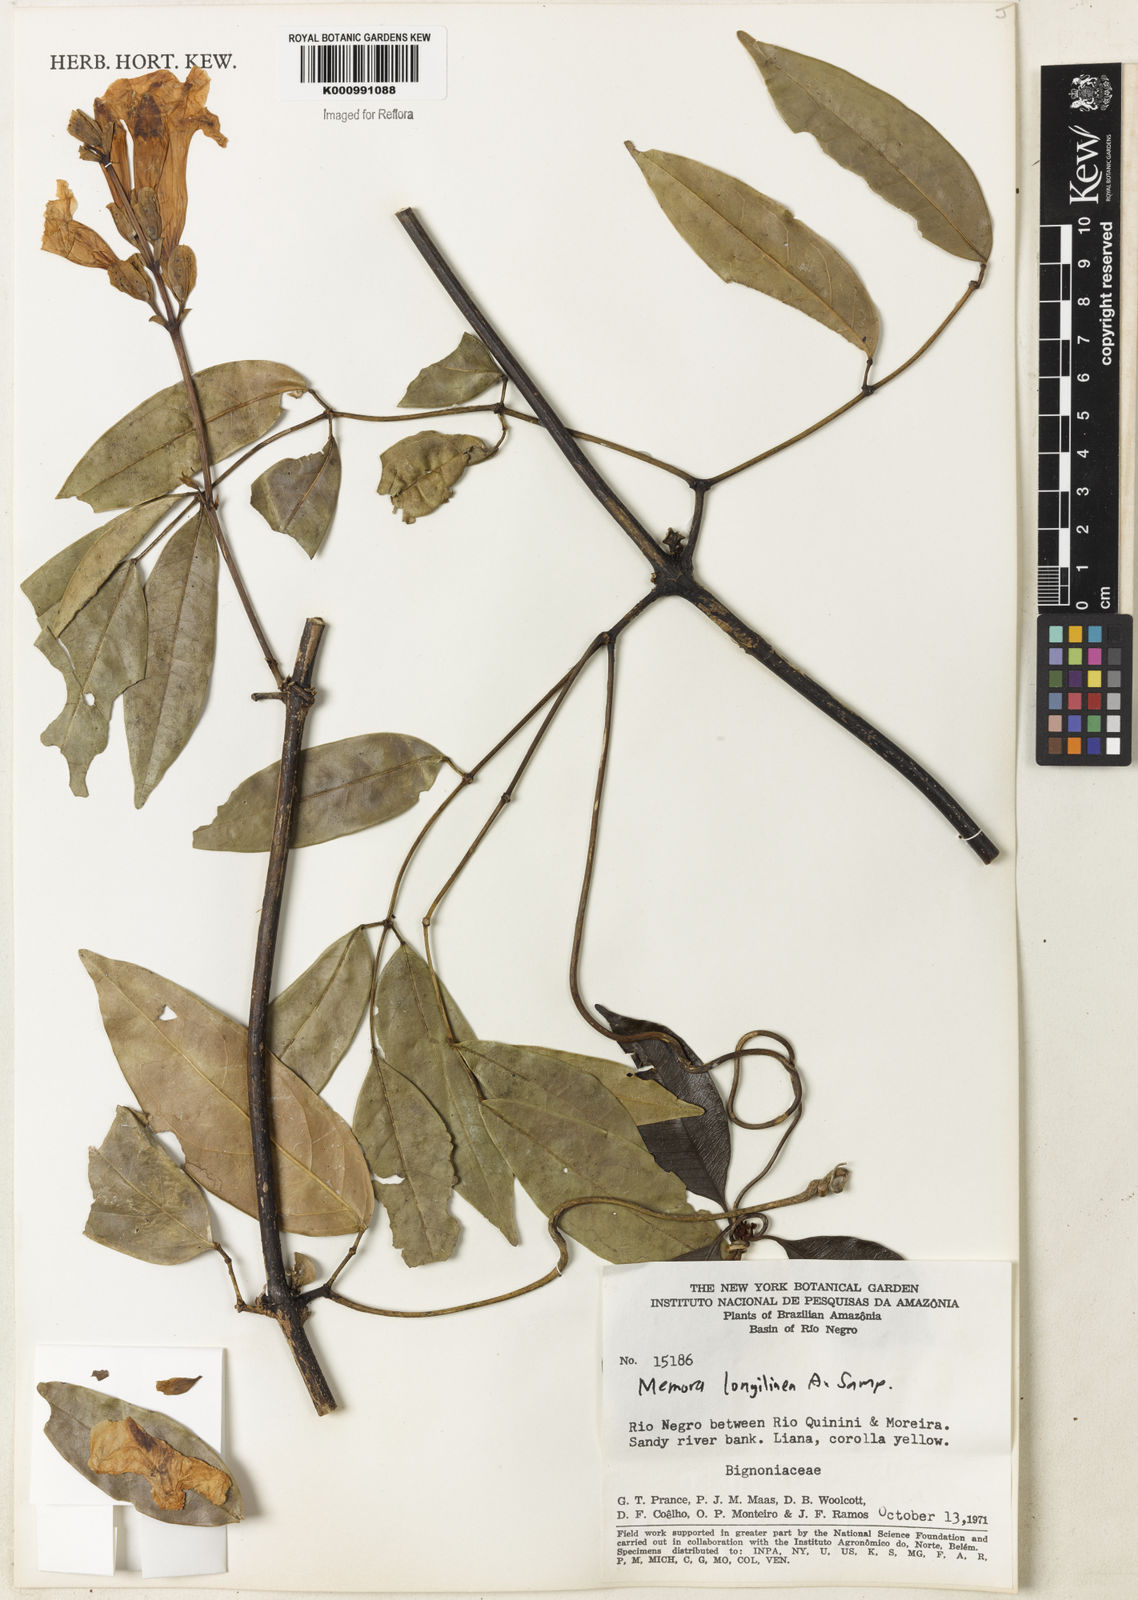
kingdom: Plantae
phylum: Tracheophyta
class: Magnoliopsida
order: Lamiales
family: Bignoniaceae
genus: Adenocalymma
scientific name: Adenocalymma longilineum
